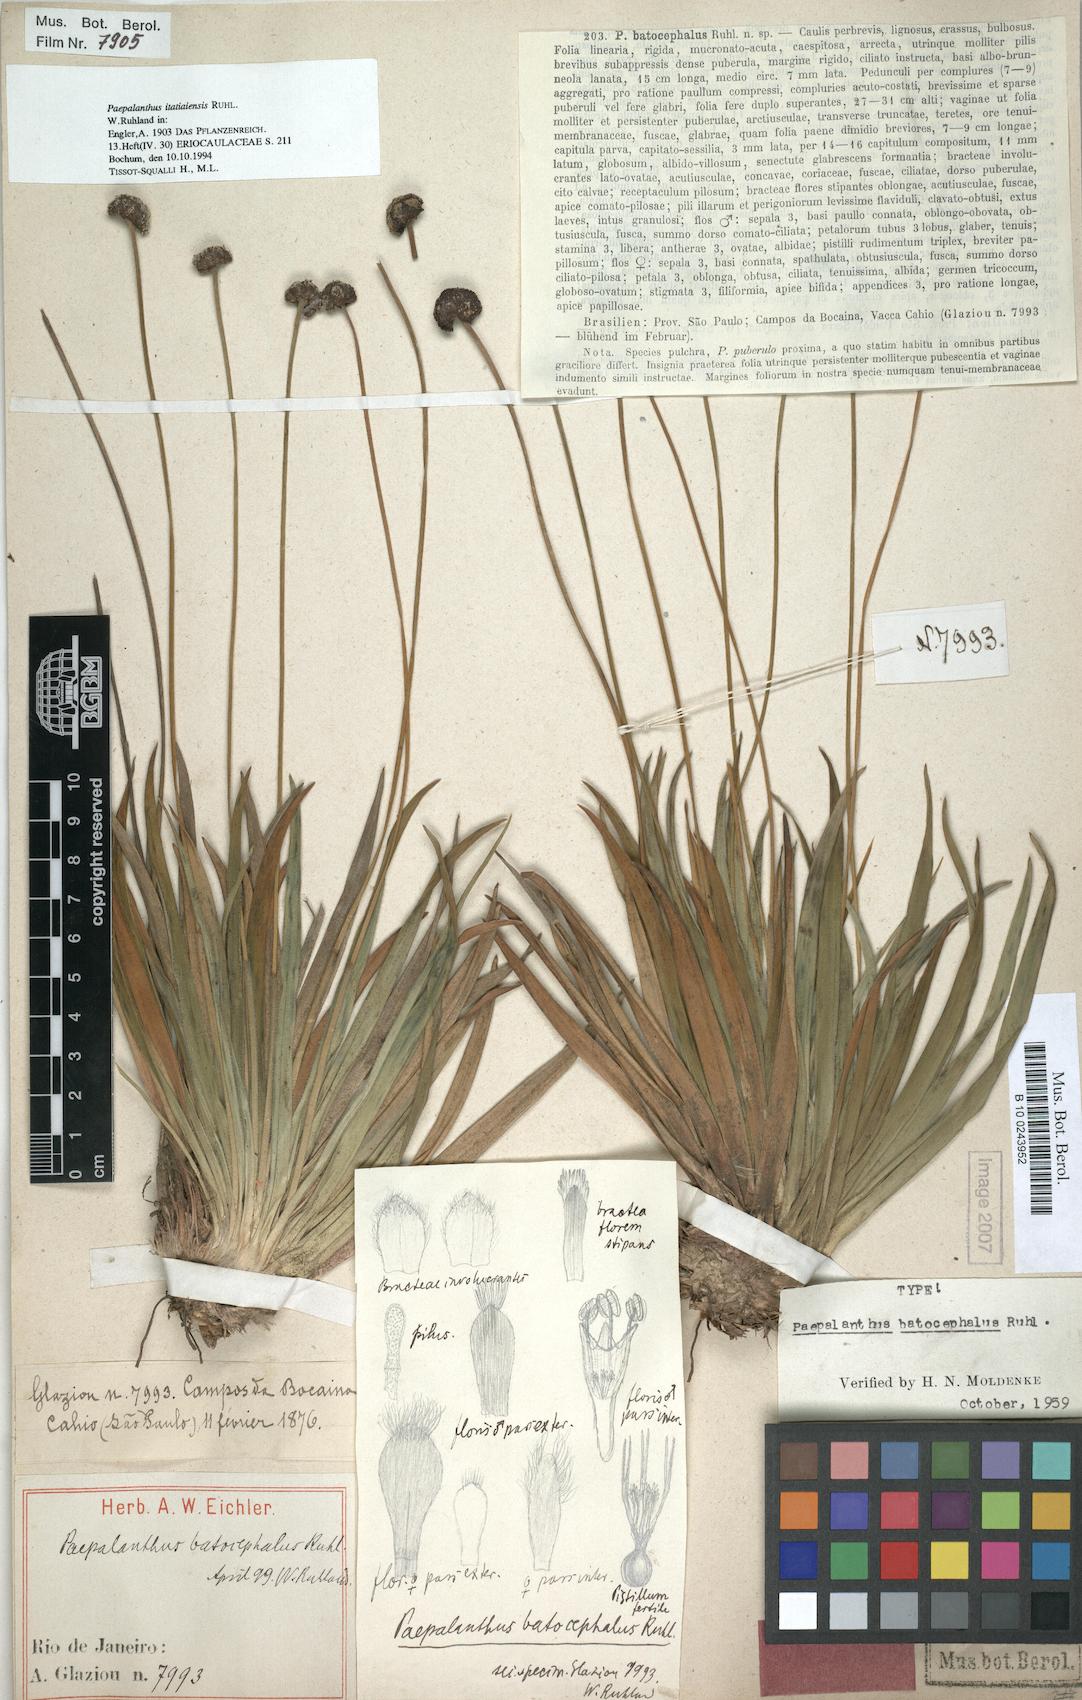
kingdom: Plantae
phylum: Tracheophyta
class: Liliopsida
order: Poales
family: Eriocaulaceae
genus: Paepalanthus
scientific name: Paepalanthus itatiaiensis
